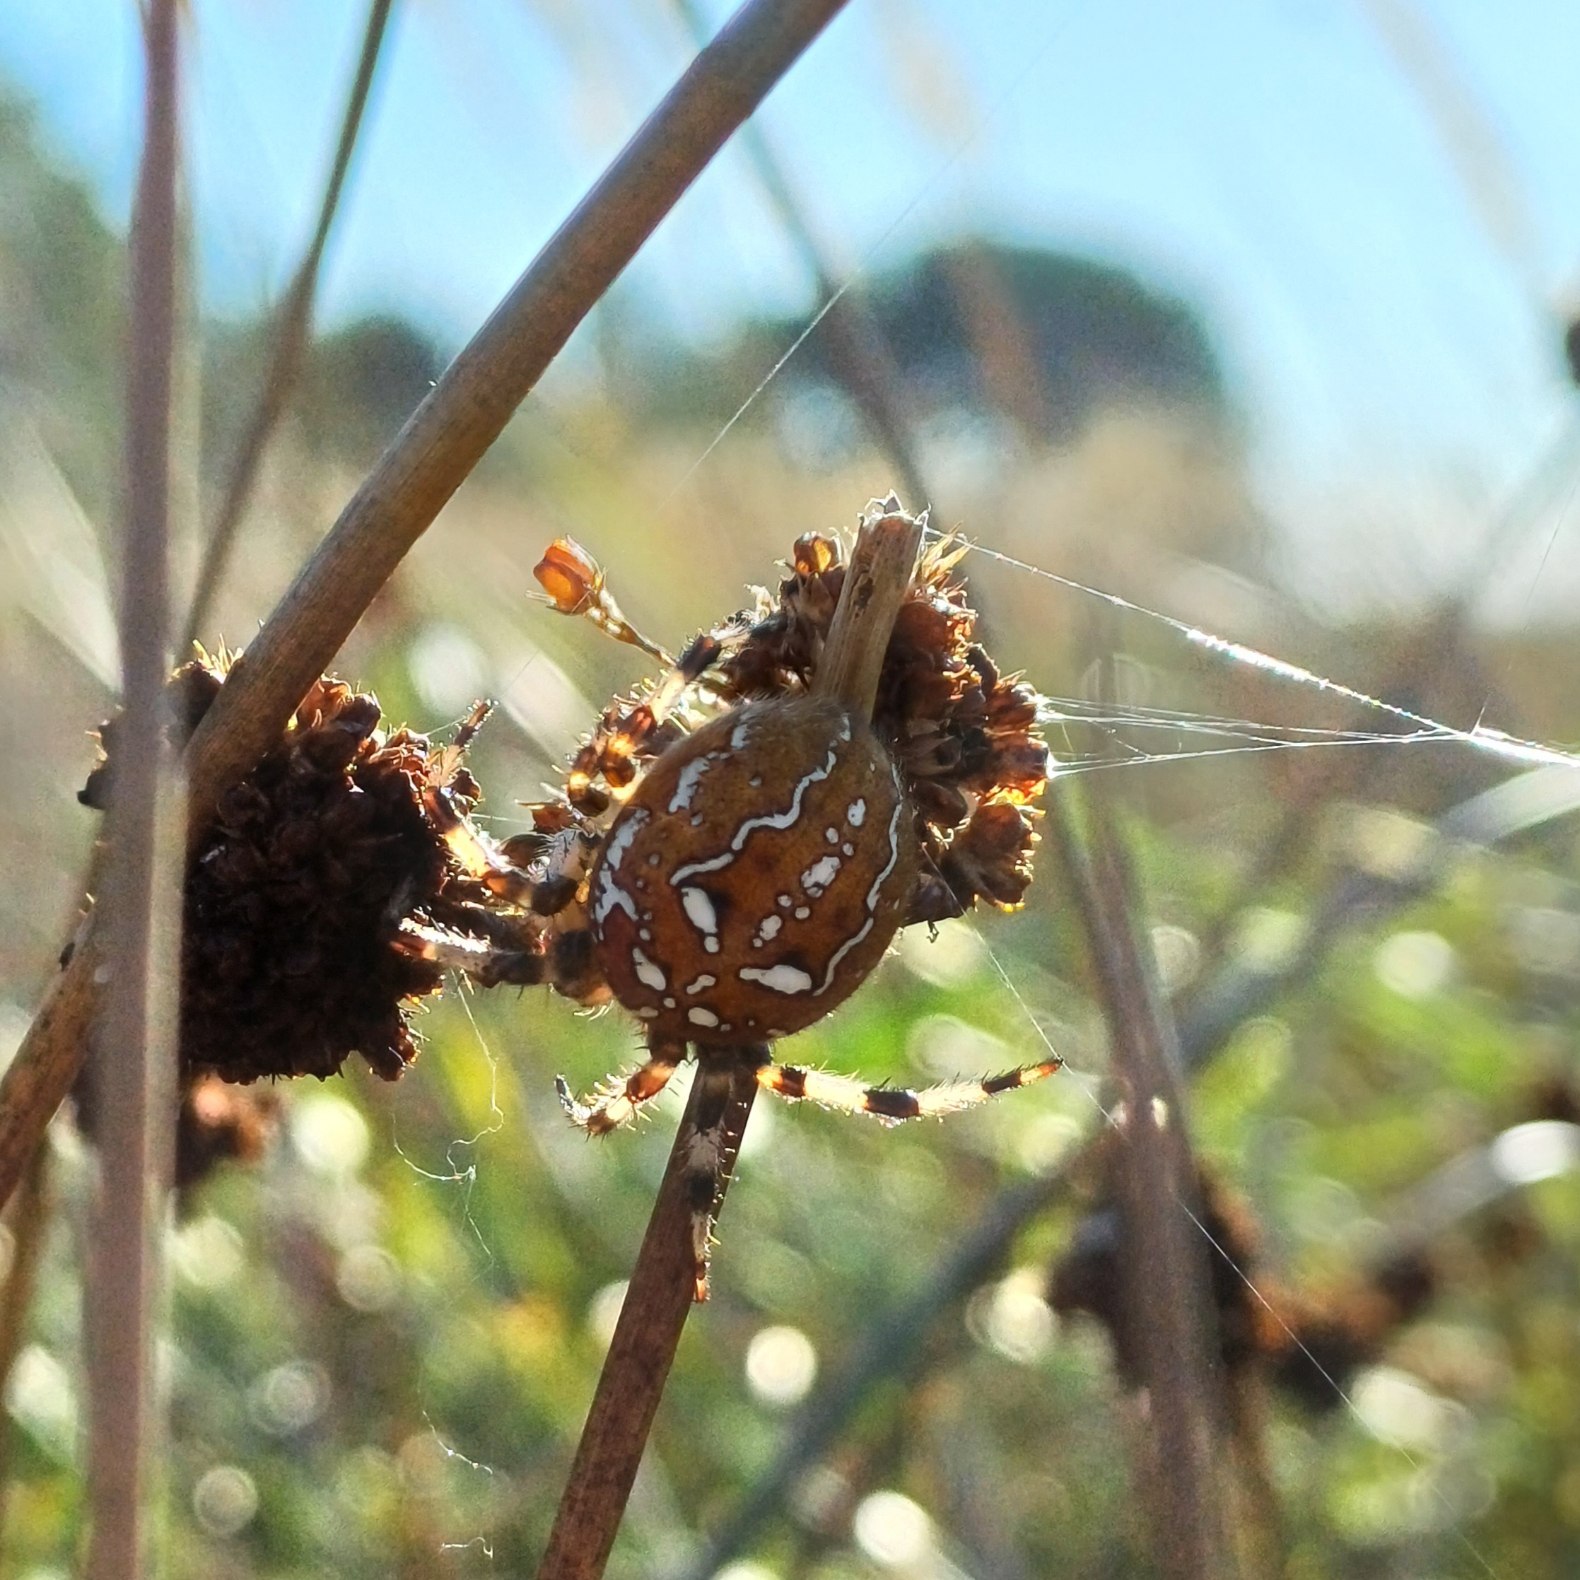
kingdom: Animalia
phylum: Arthropoda
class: Arachnida
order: Araneae
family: Araneidae
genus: Araneus
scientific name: Araneus quadratus
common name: Kvadratedderkop
